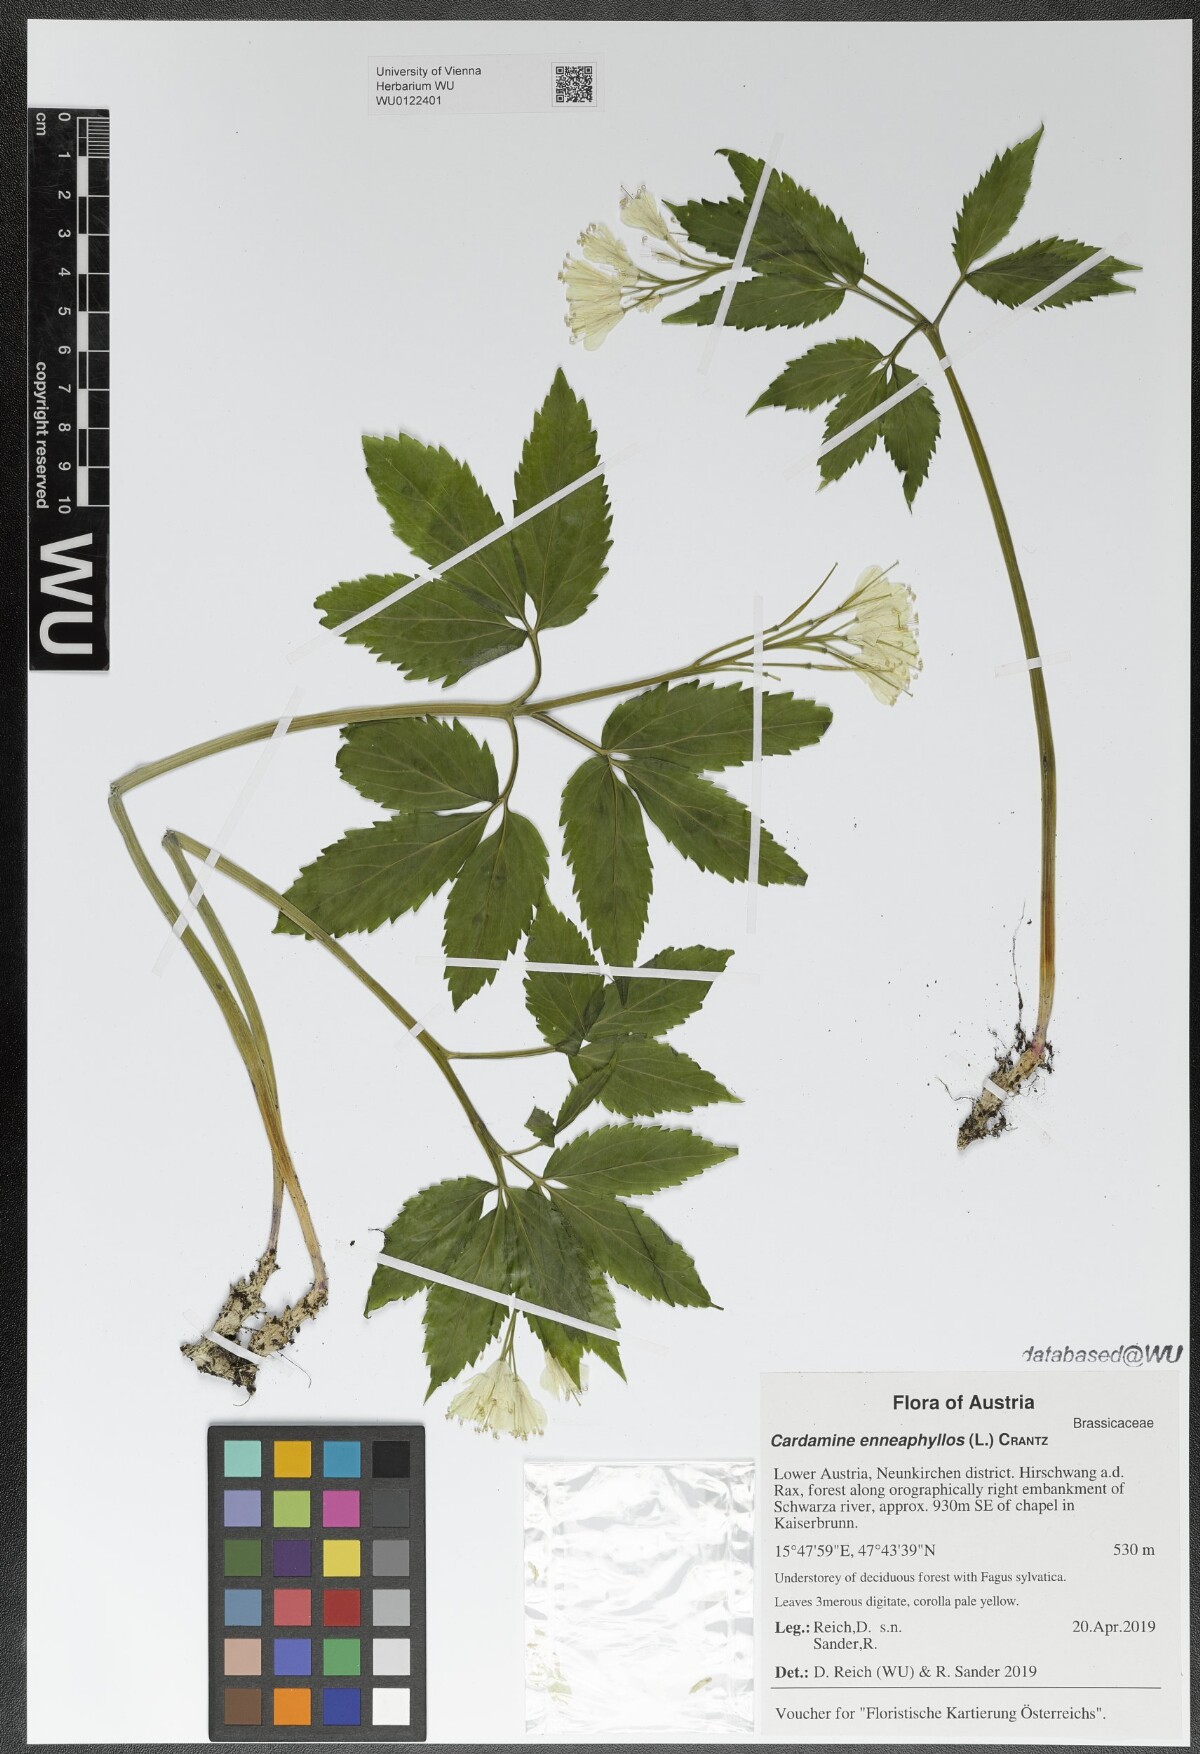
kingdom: Plantae
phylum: Tracheophyta
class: Magnoliopsida
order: Brassicales
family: Brassicaceae
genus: Cardamine
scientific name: Cardamine enneaphyllos
